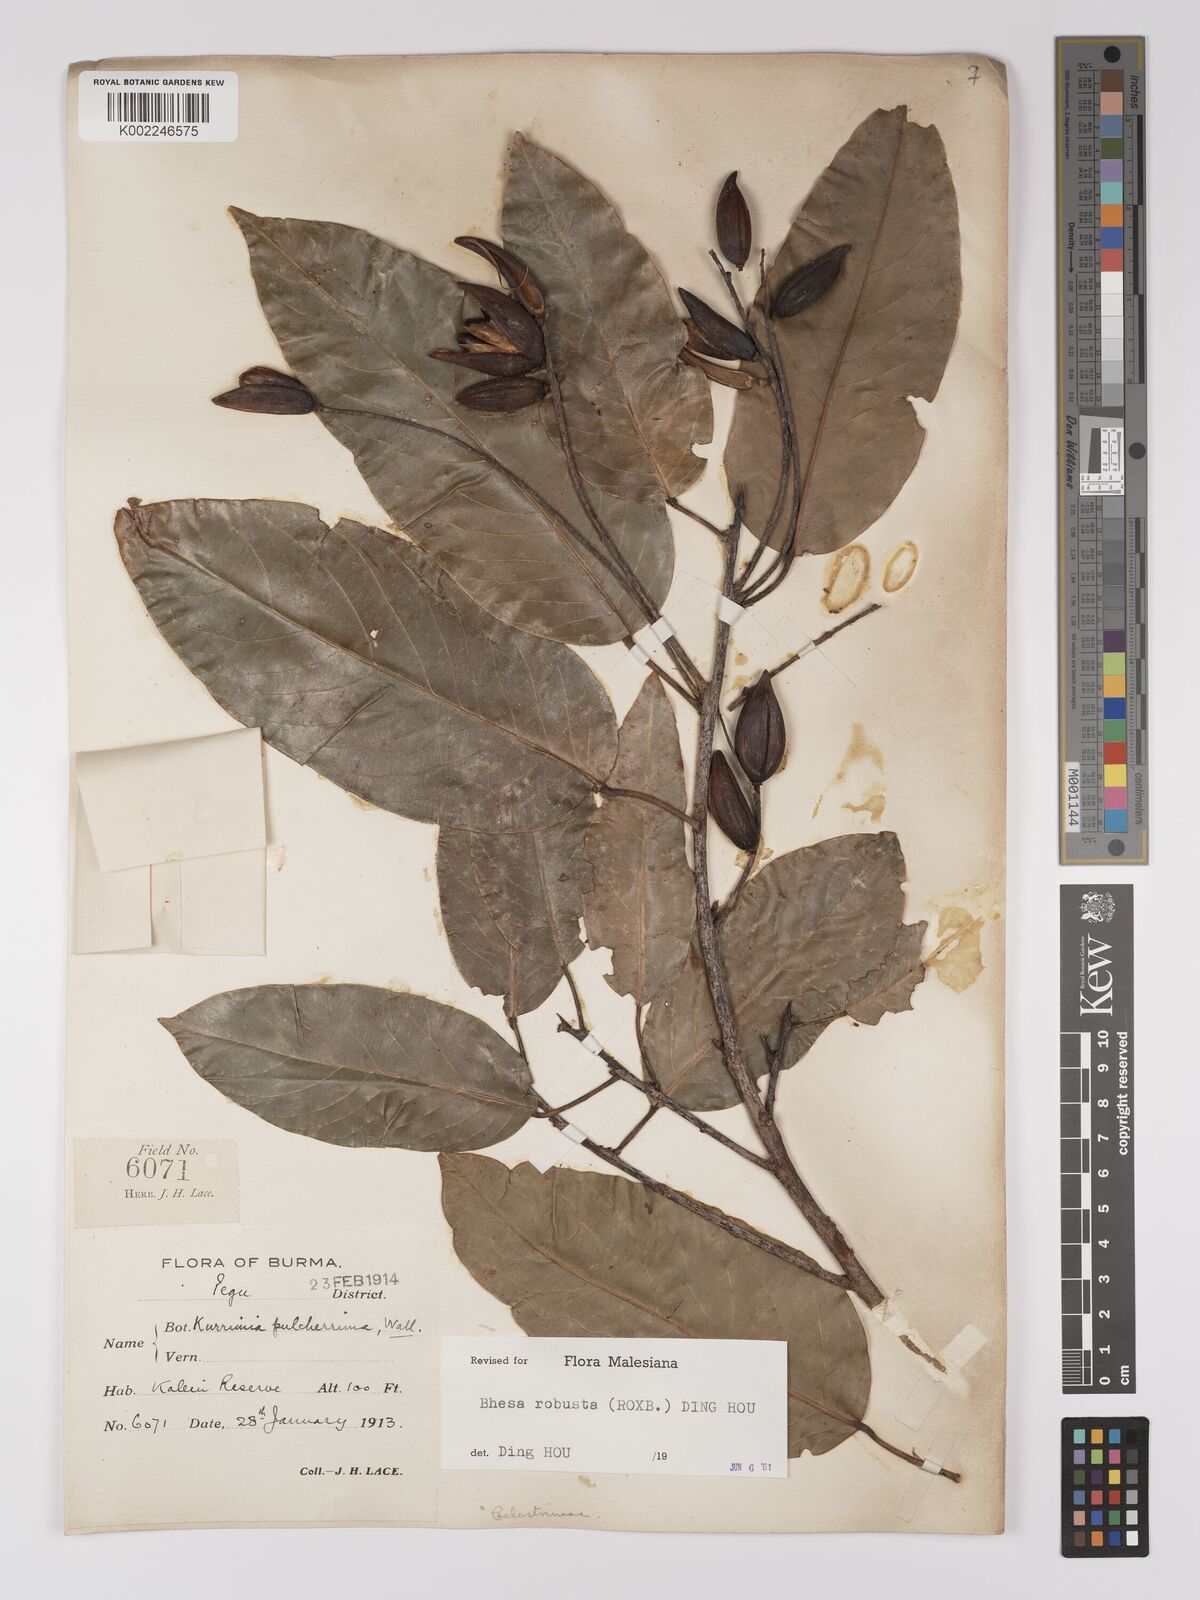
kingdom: Plantae
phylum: Tracheophyta
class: Magnoliopsida
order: Malpighiales
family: Centroplacaceae
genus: Bhesa
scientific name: Bhesa robusta
